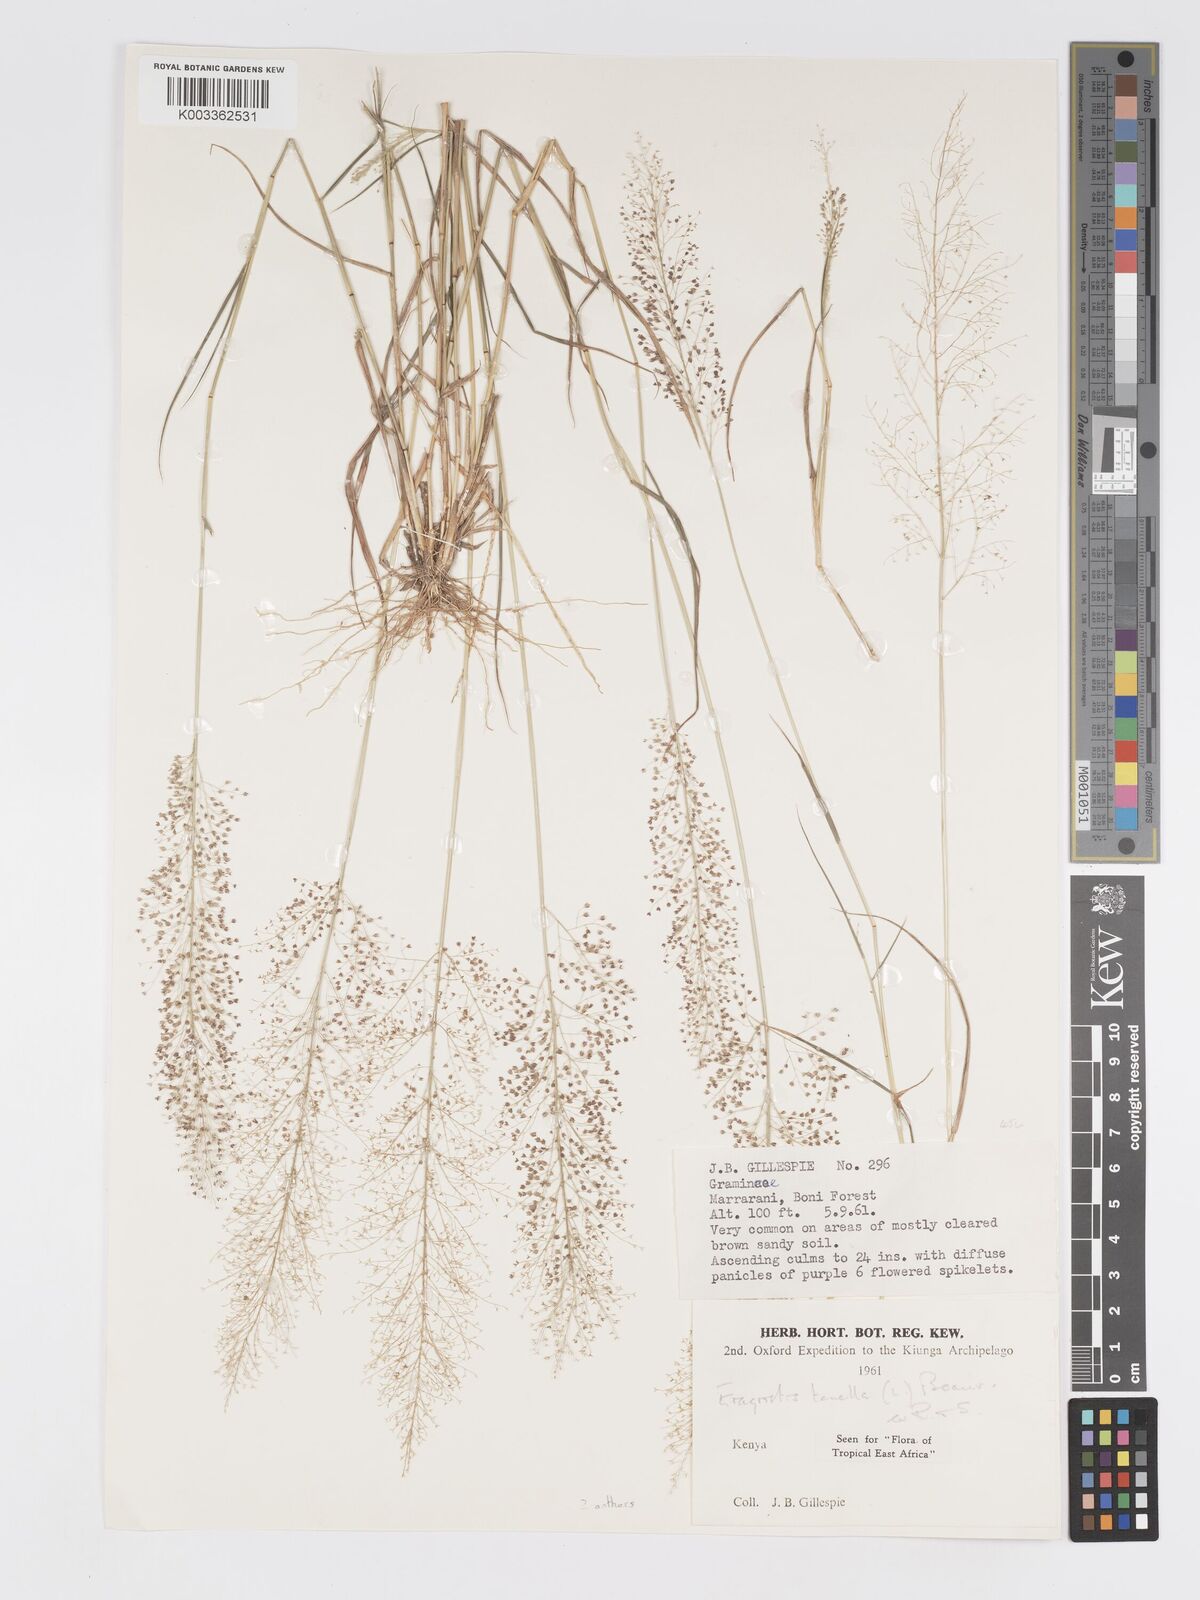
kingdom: Plantae
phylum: Tracheophyta
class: Liliopsida
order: Poales
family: Poaceae
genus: Eragrostis
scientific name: Eragrostis lepida
